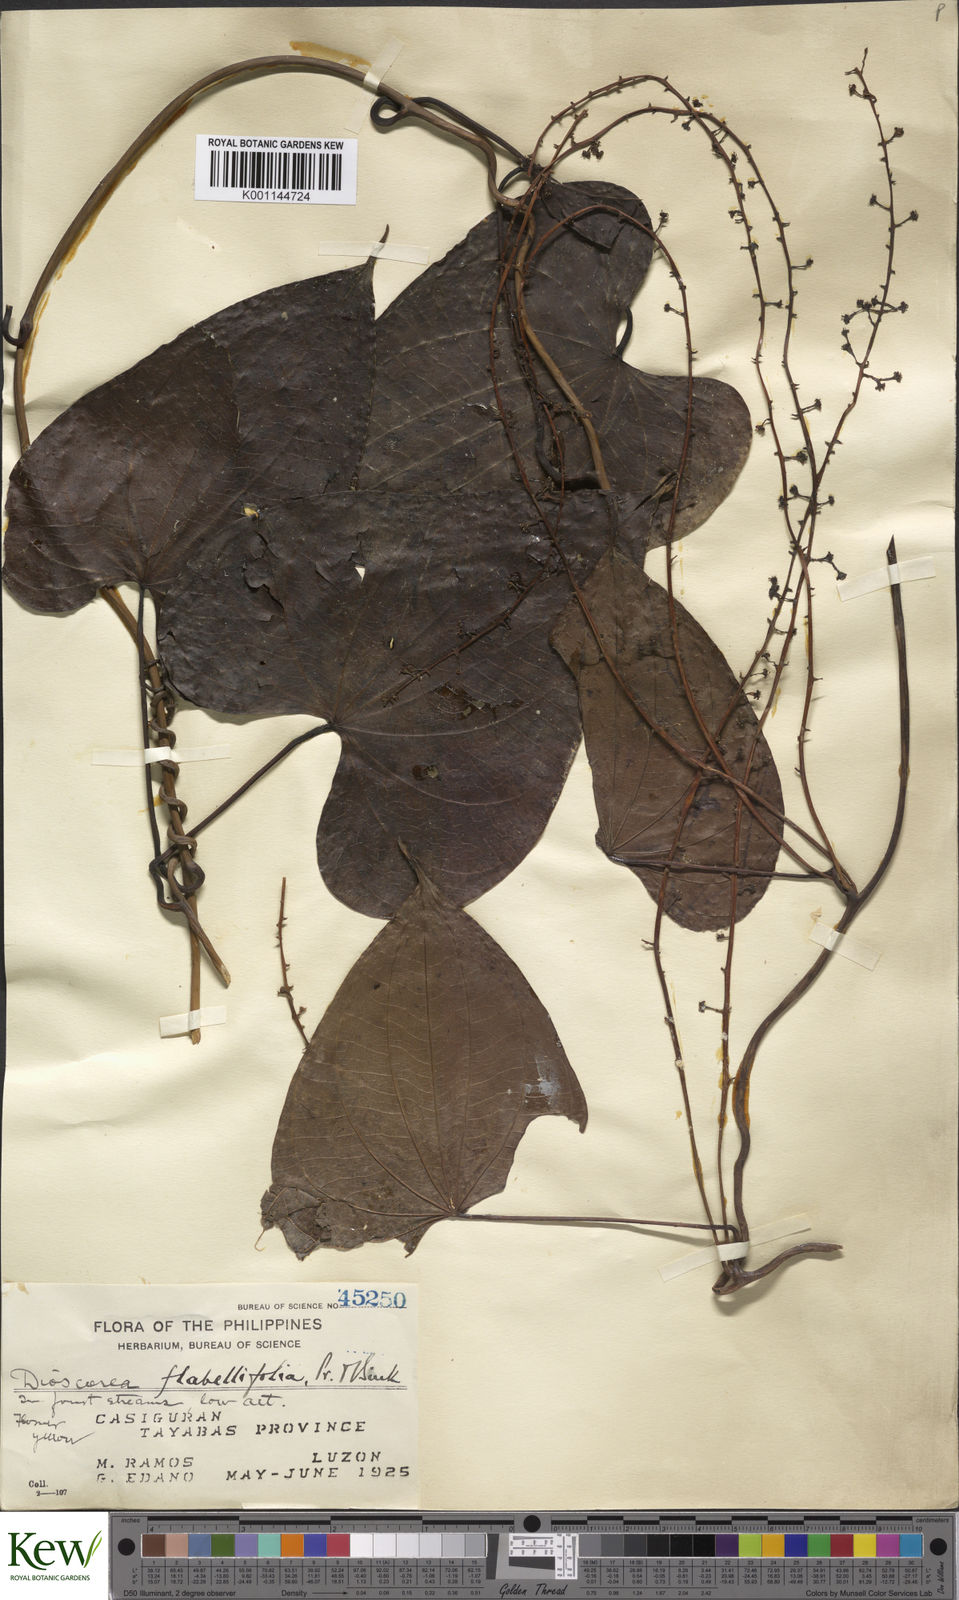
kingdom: Plantae
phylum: Tracheophyta
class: Liliopsida
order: Dioscoreales
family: Dioscoreaceae
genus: Dioscorea
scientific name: Dioscorea flabellifolia
